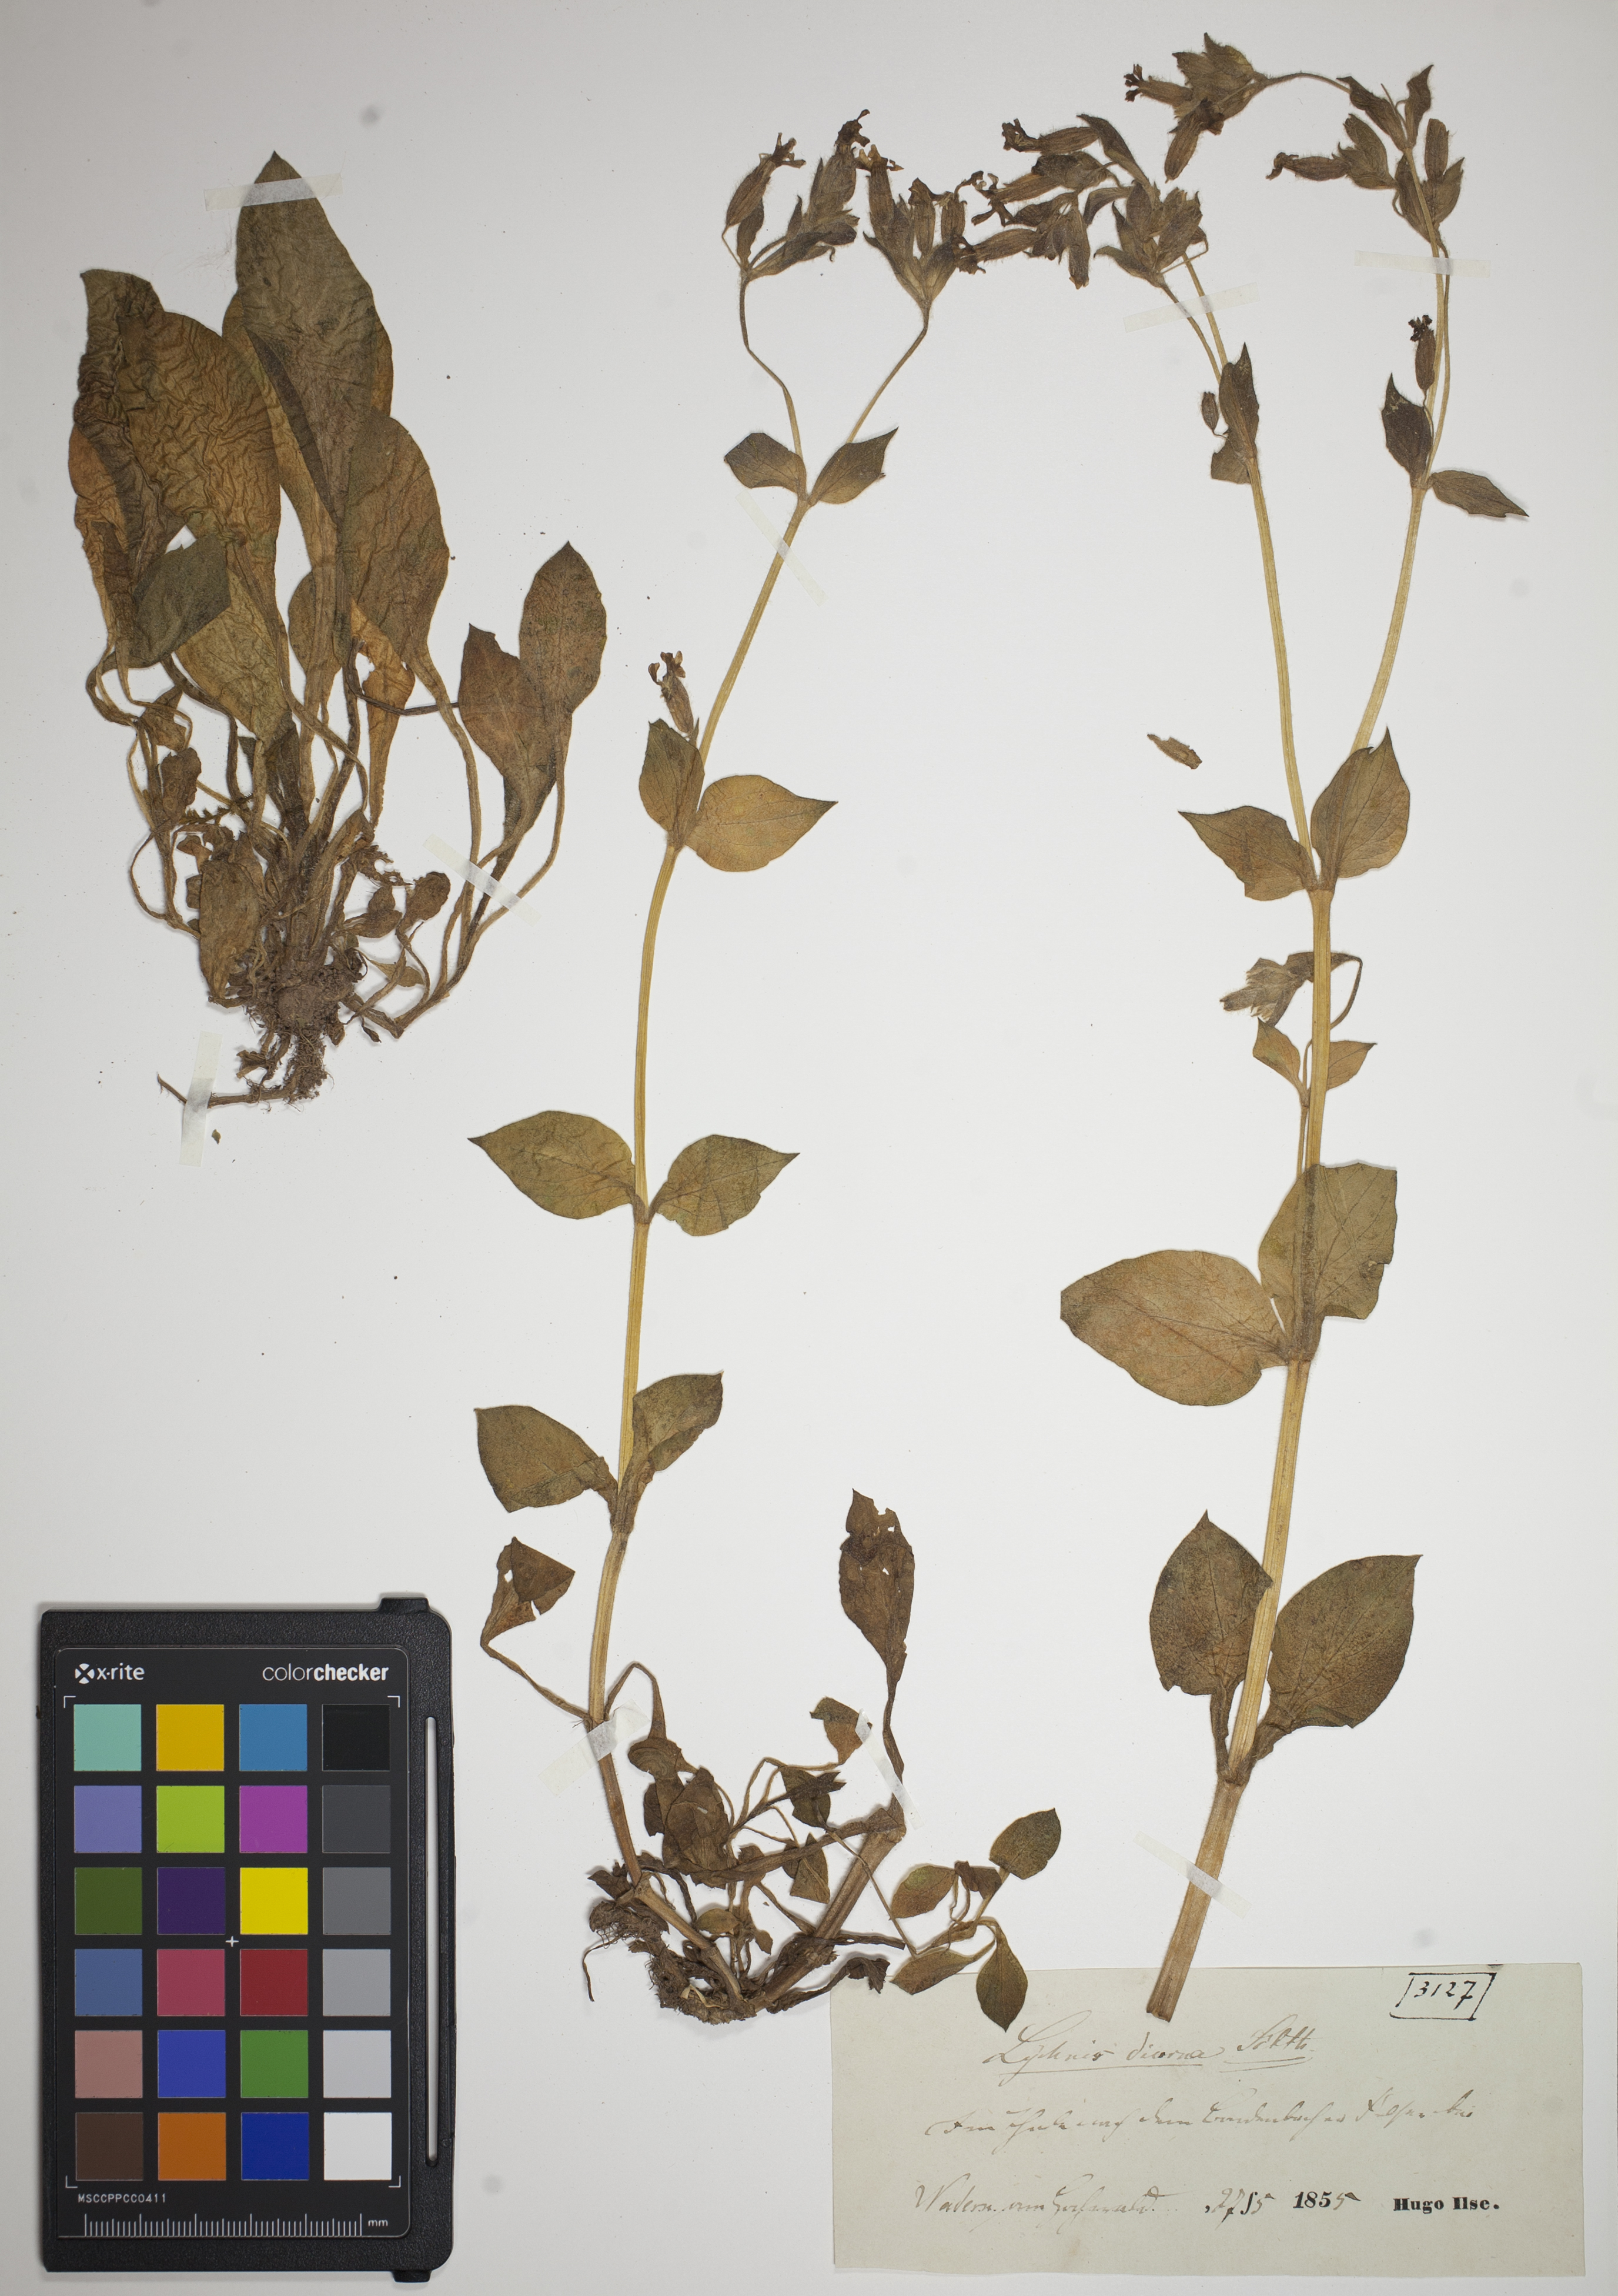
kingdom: Plantae
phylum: Tracheophyta
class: Magnoliopsida
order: Caryophyllales
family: Caryophyllaceae
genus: Silene
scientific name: Silene dioica
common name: Red campion
